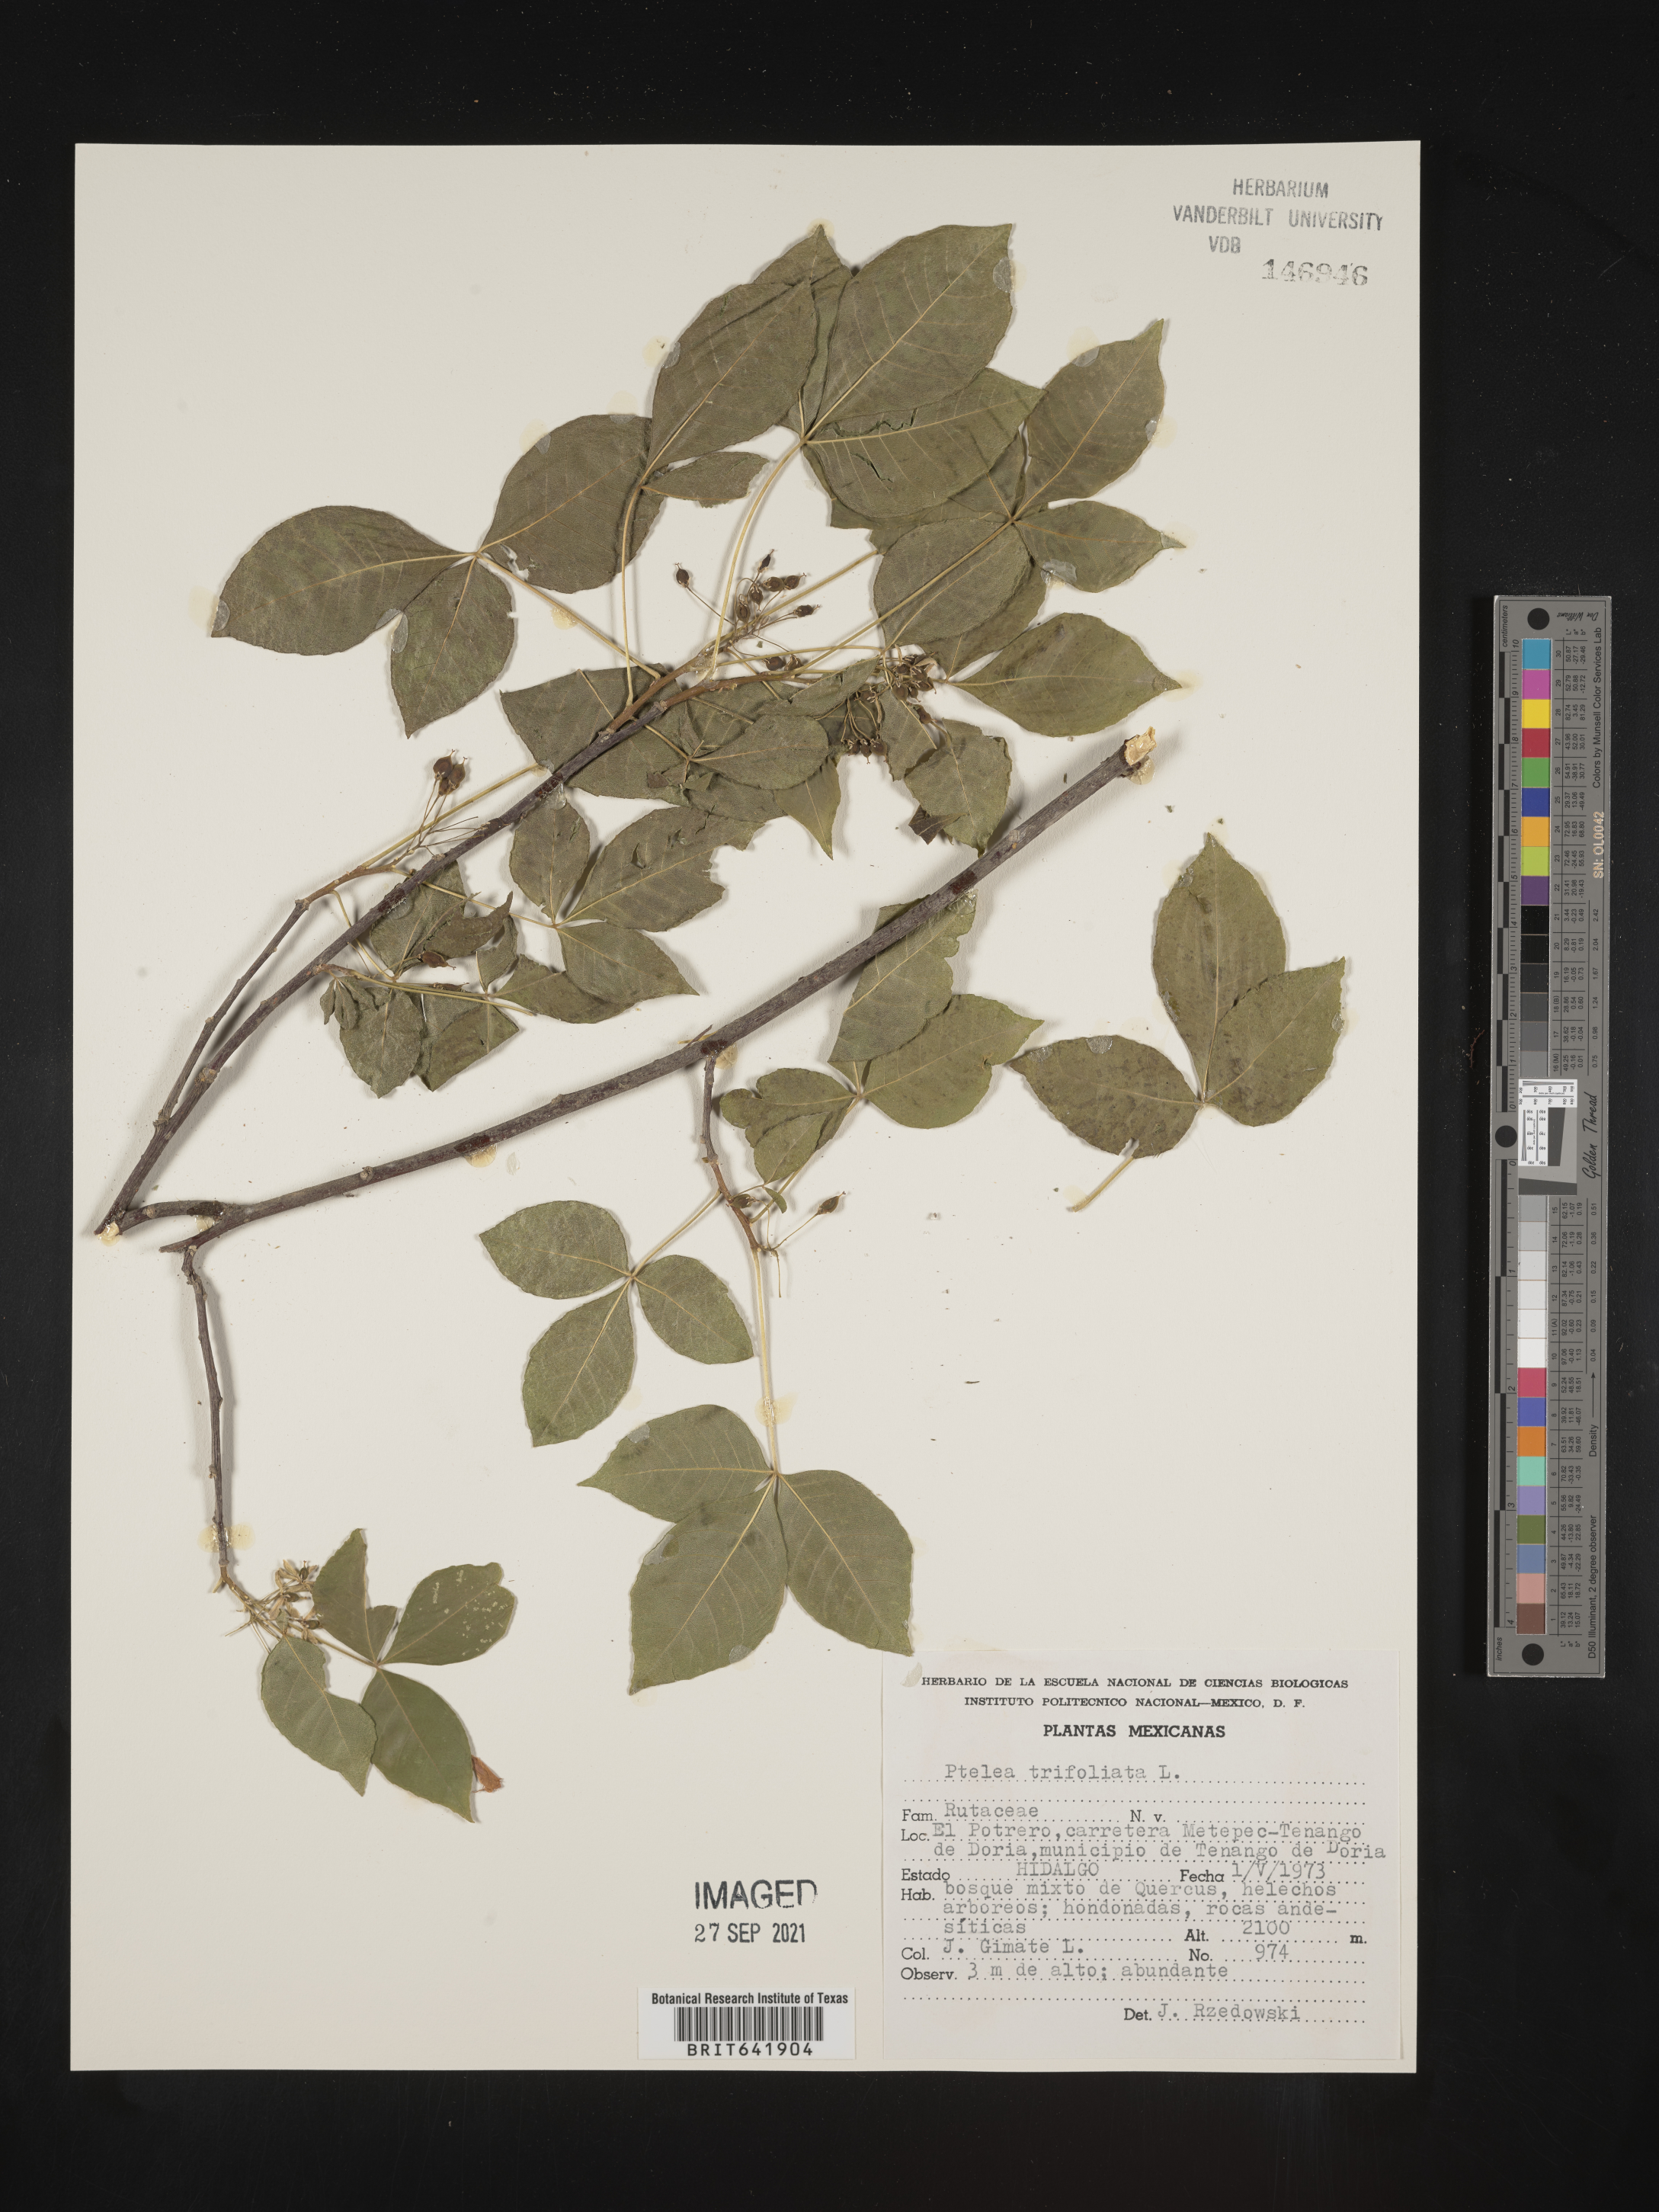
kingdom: Plantae
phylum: Tracheophyta
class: Magnoliopsida
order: Sapindales
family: Rutaceae
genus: Ptelea
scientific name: Ptelea
